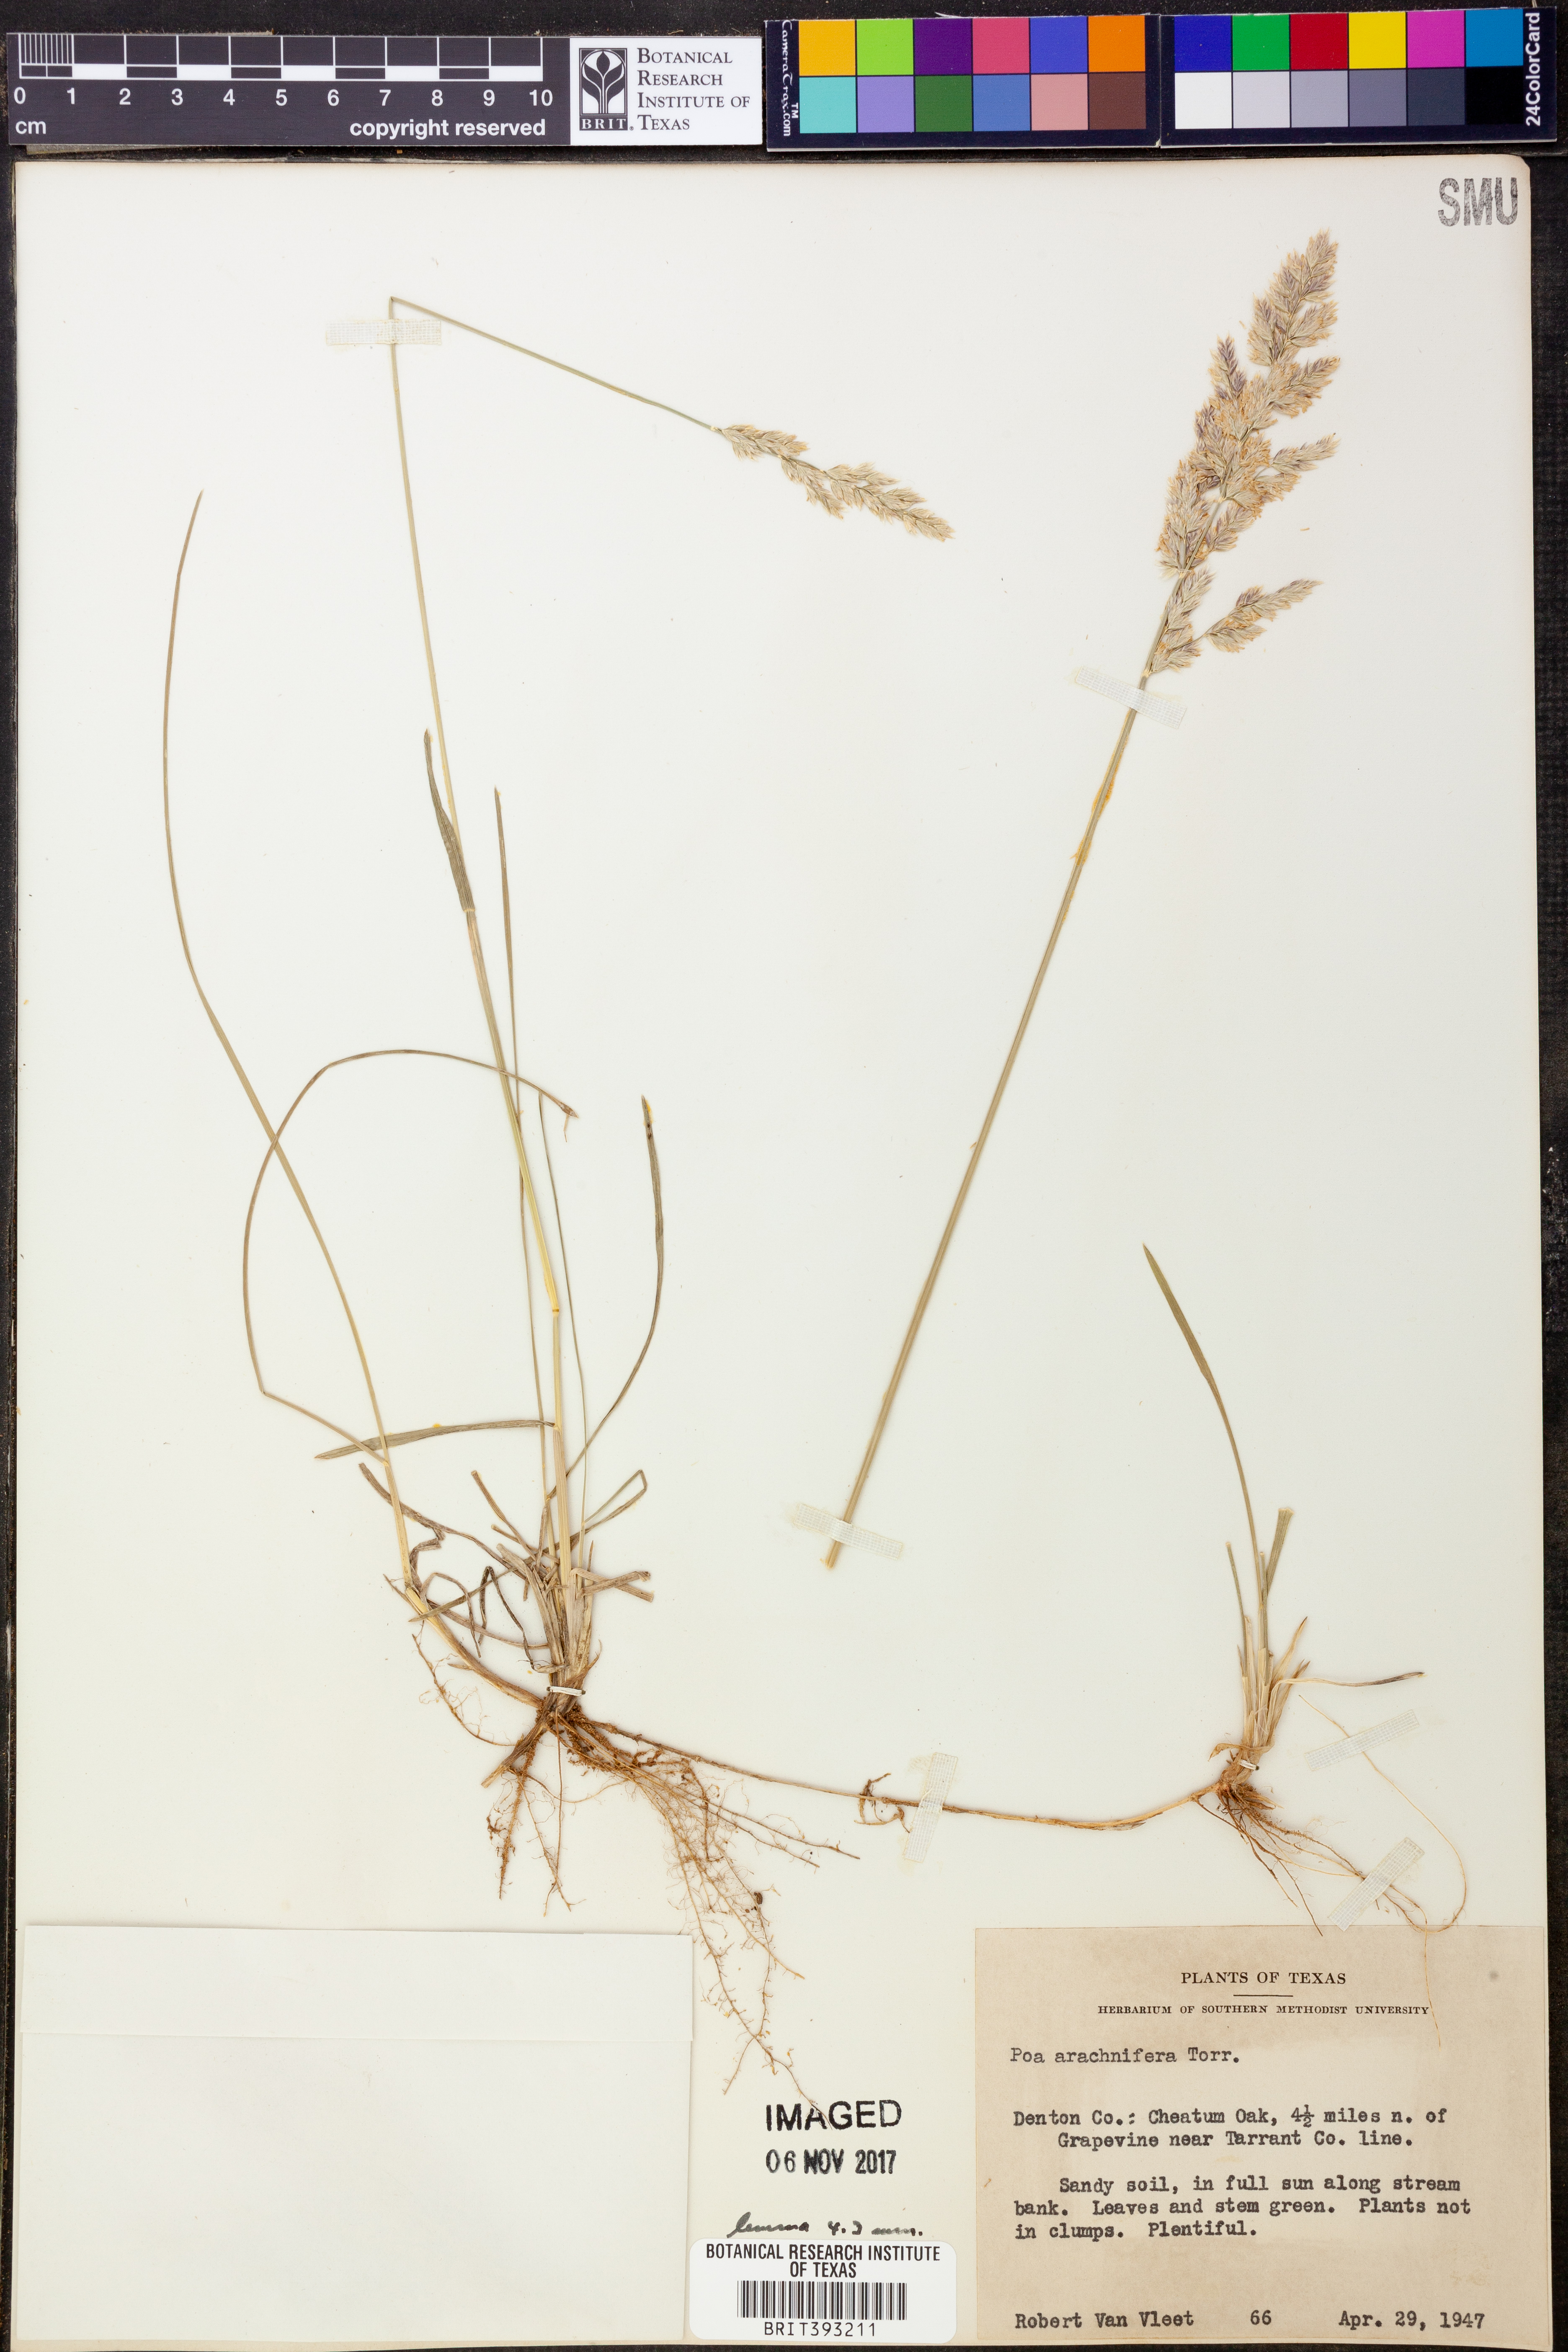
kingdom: Plantae
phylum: Tracheophyta
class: Liliopsida
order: Poales
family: Poaceae
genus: Poa
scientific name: Poa arachnifera
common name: Texas bluegrass
